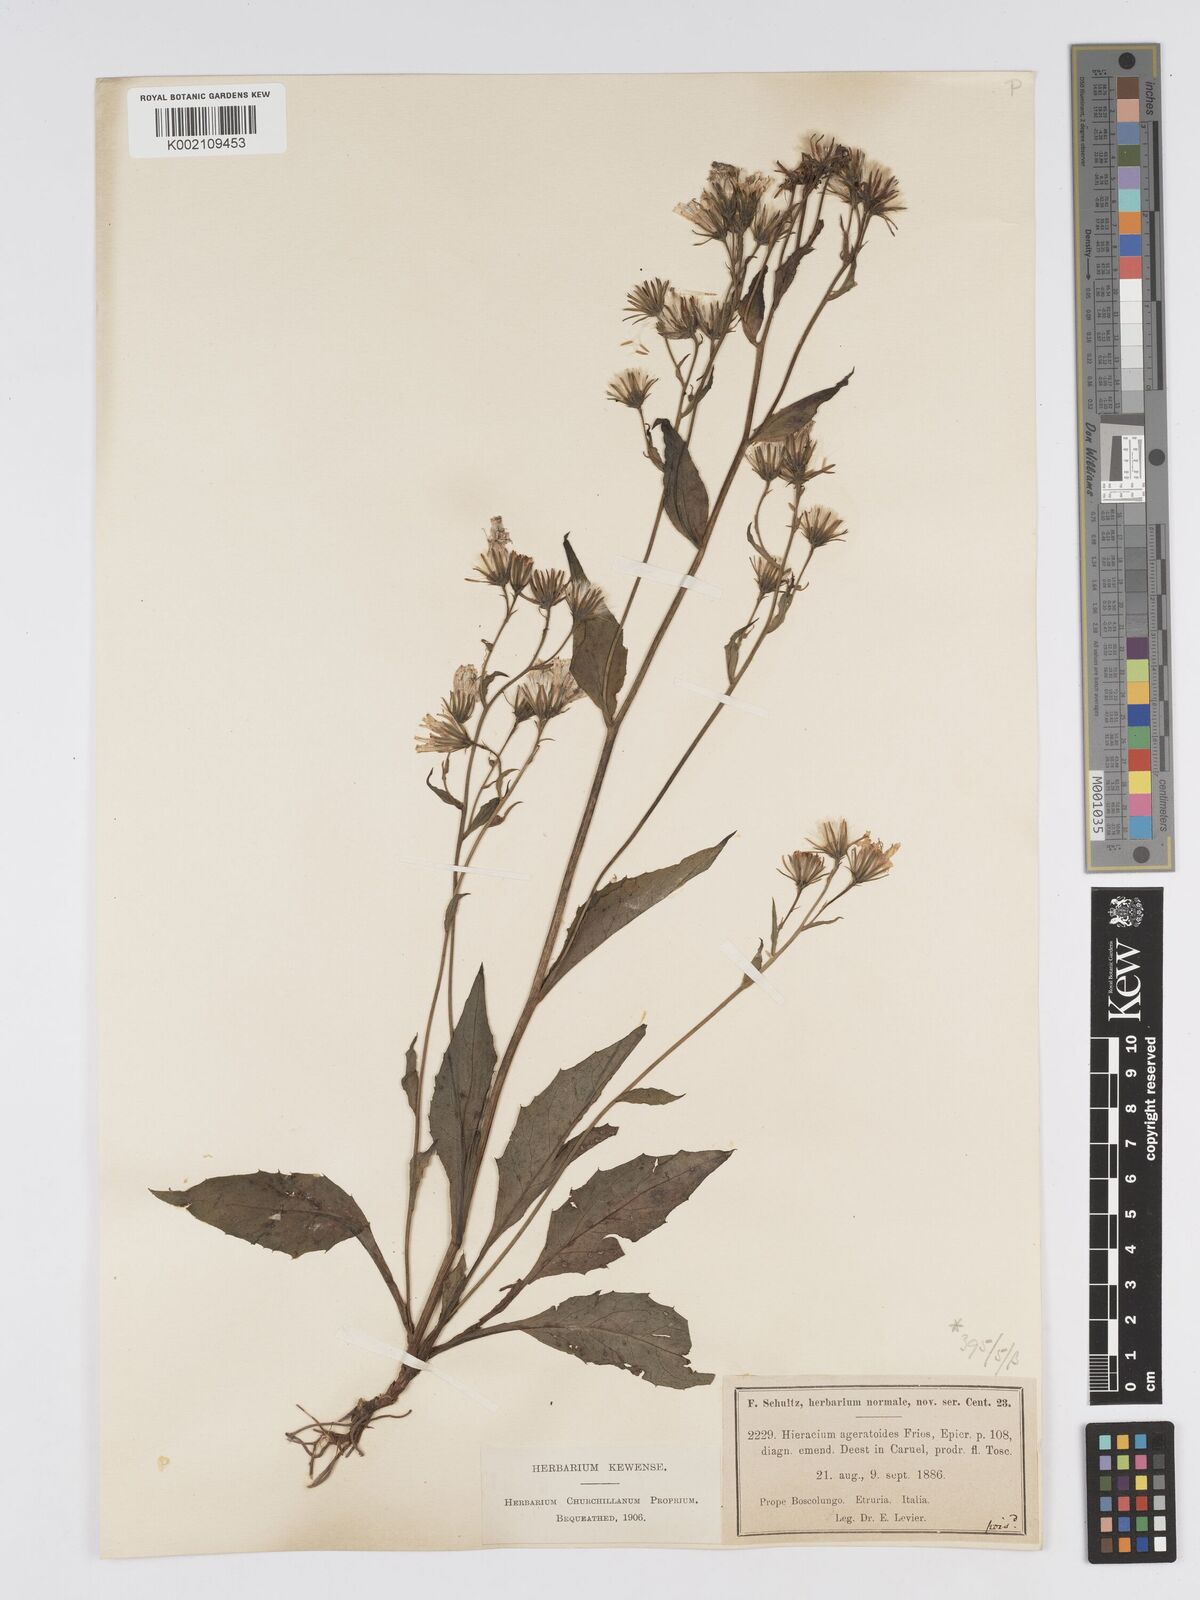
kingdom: Plantae
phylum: Tracheophyta
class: Magnoliopsida
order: Asterales
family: Asteraceae
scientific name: Asteraceae
